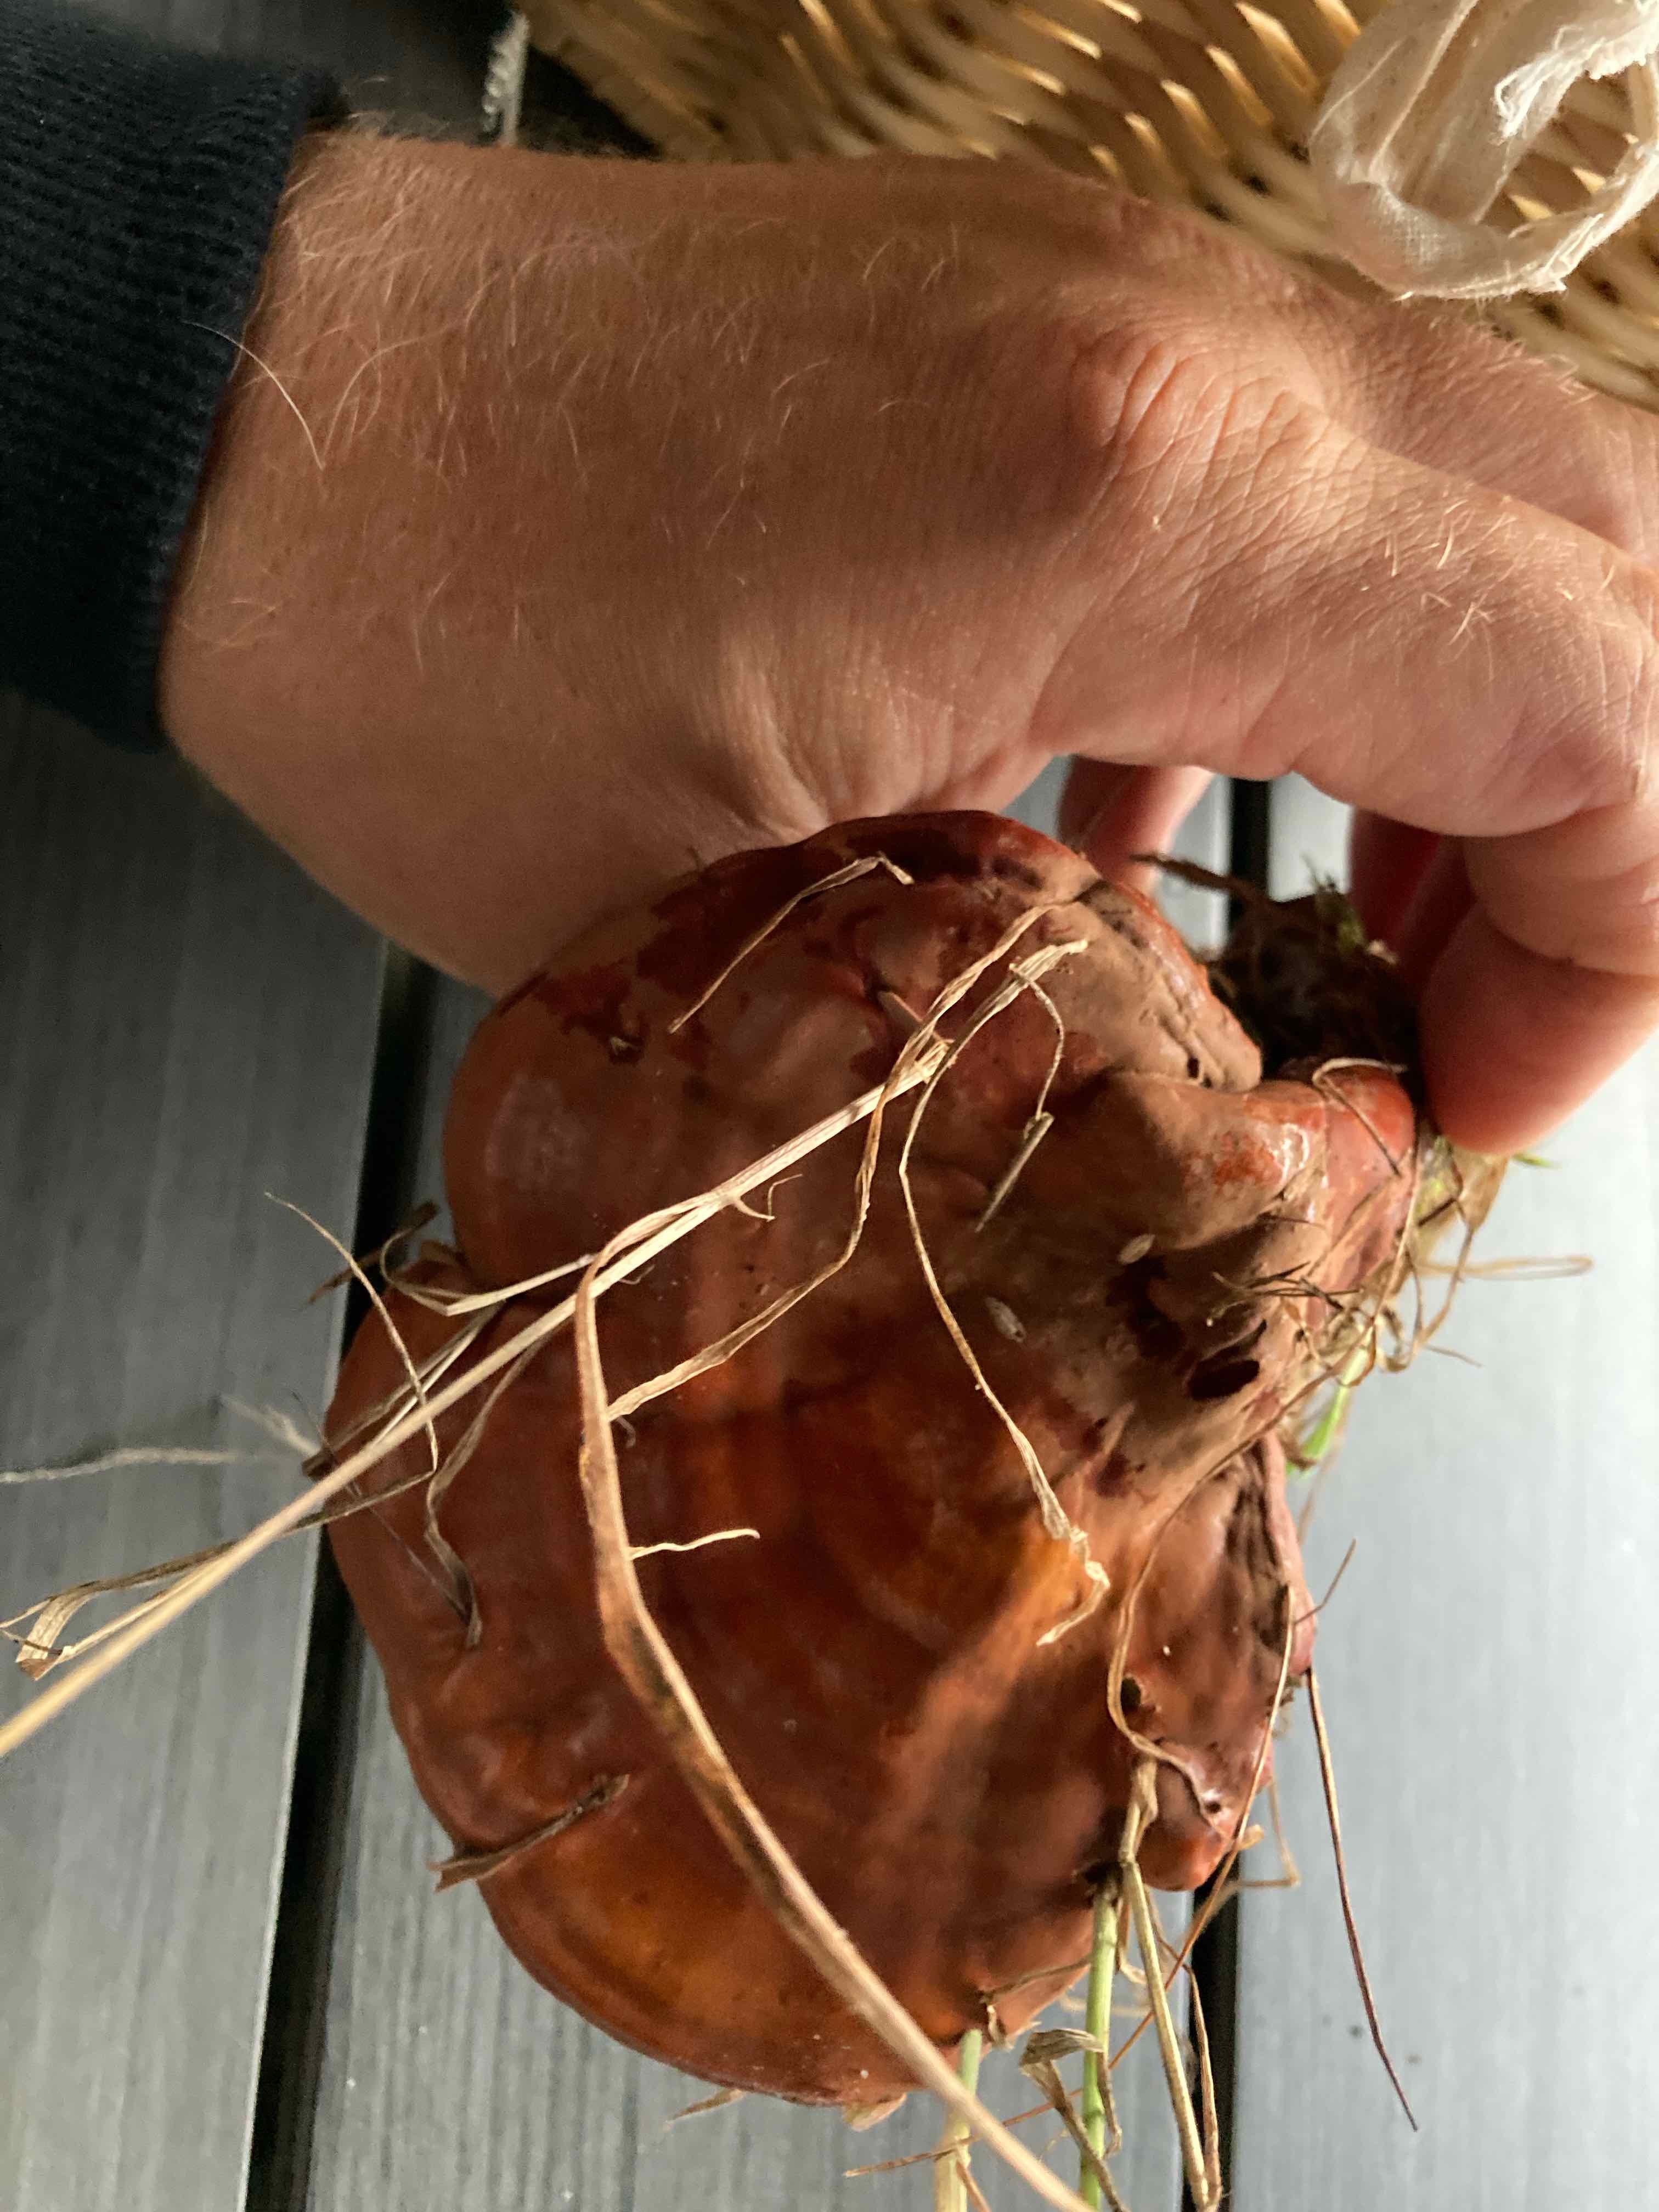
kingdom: Fungi
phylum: Basidiomycota
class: Agaricomycetes
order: Polyporales
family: Polyporaceae
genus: Ganoderma
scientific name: Ganoderma lucidum
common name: skinnende lakporesvamp
